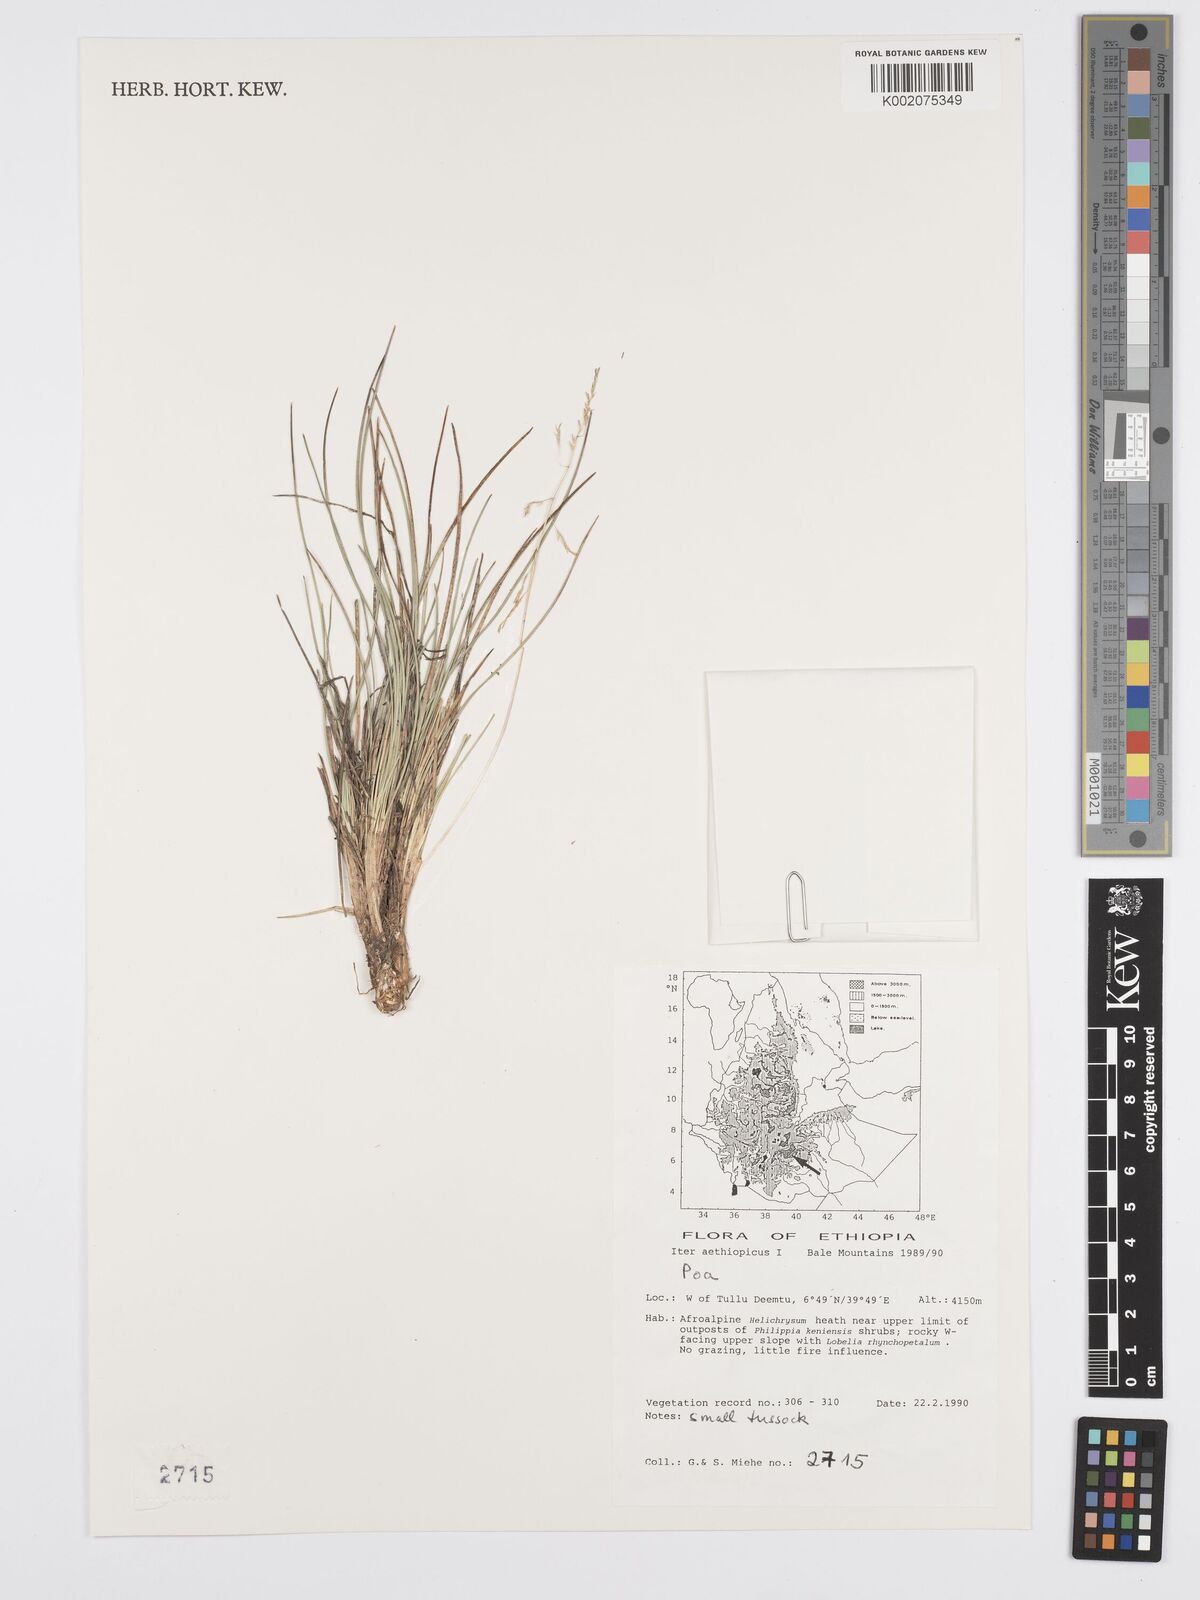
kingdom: Plantae
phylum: Tracheophyta
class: Liliopsida
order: Poales
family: Poaceae
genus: Poa
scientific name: Poa schimperiana
